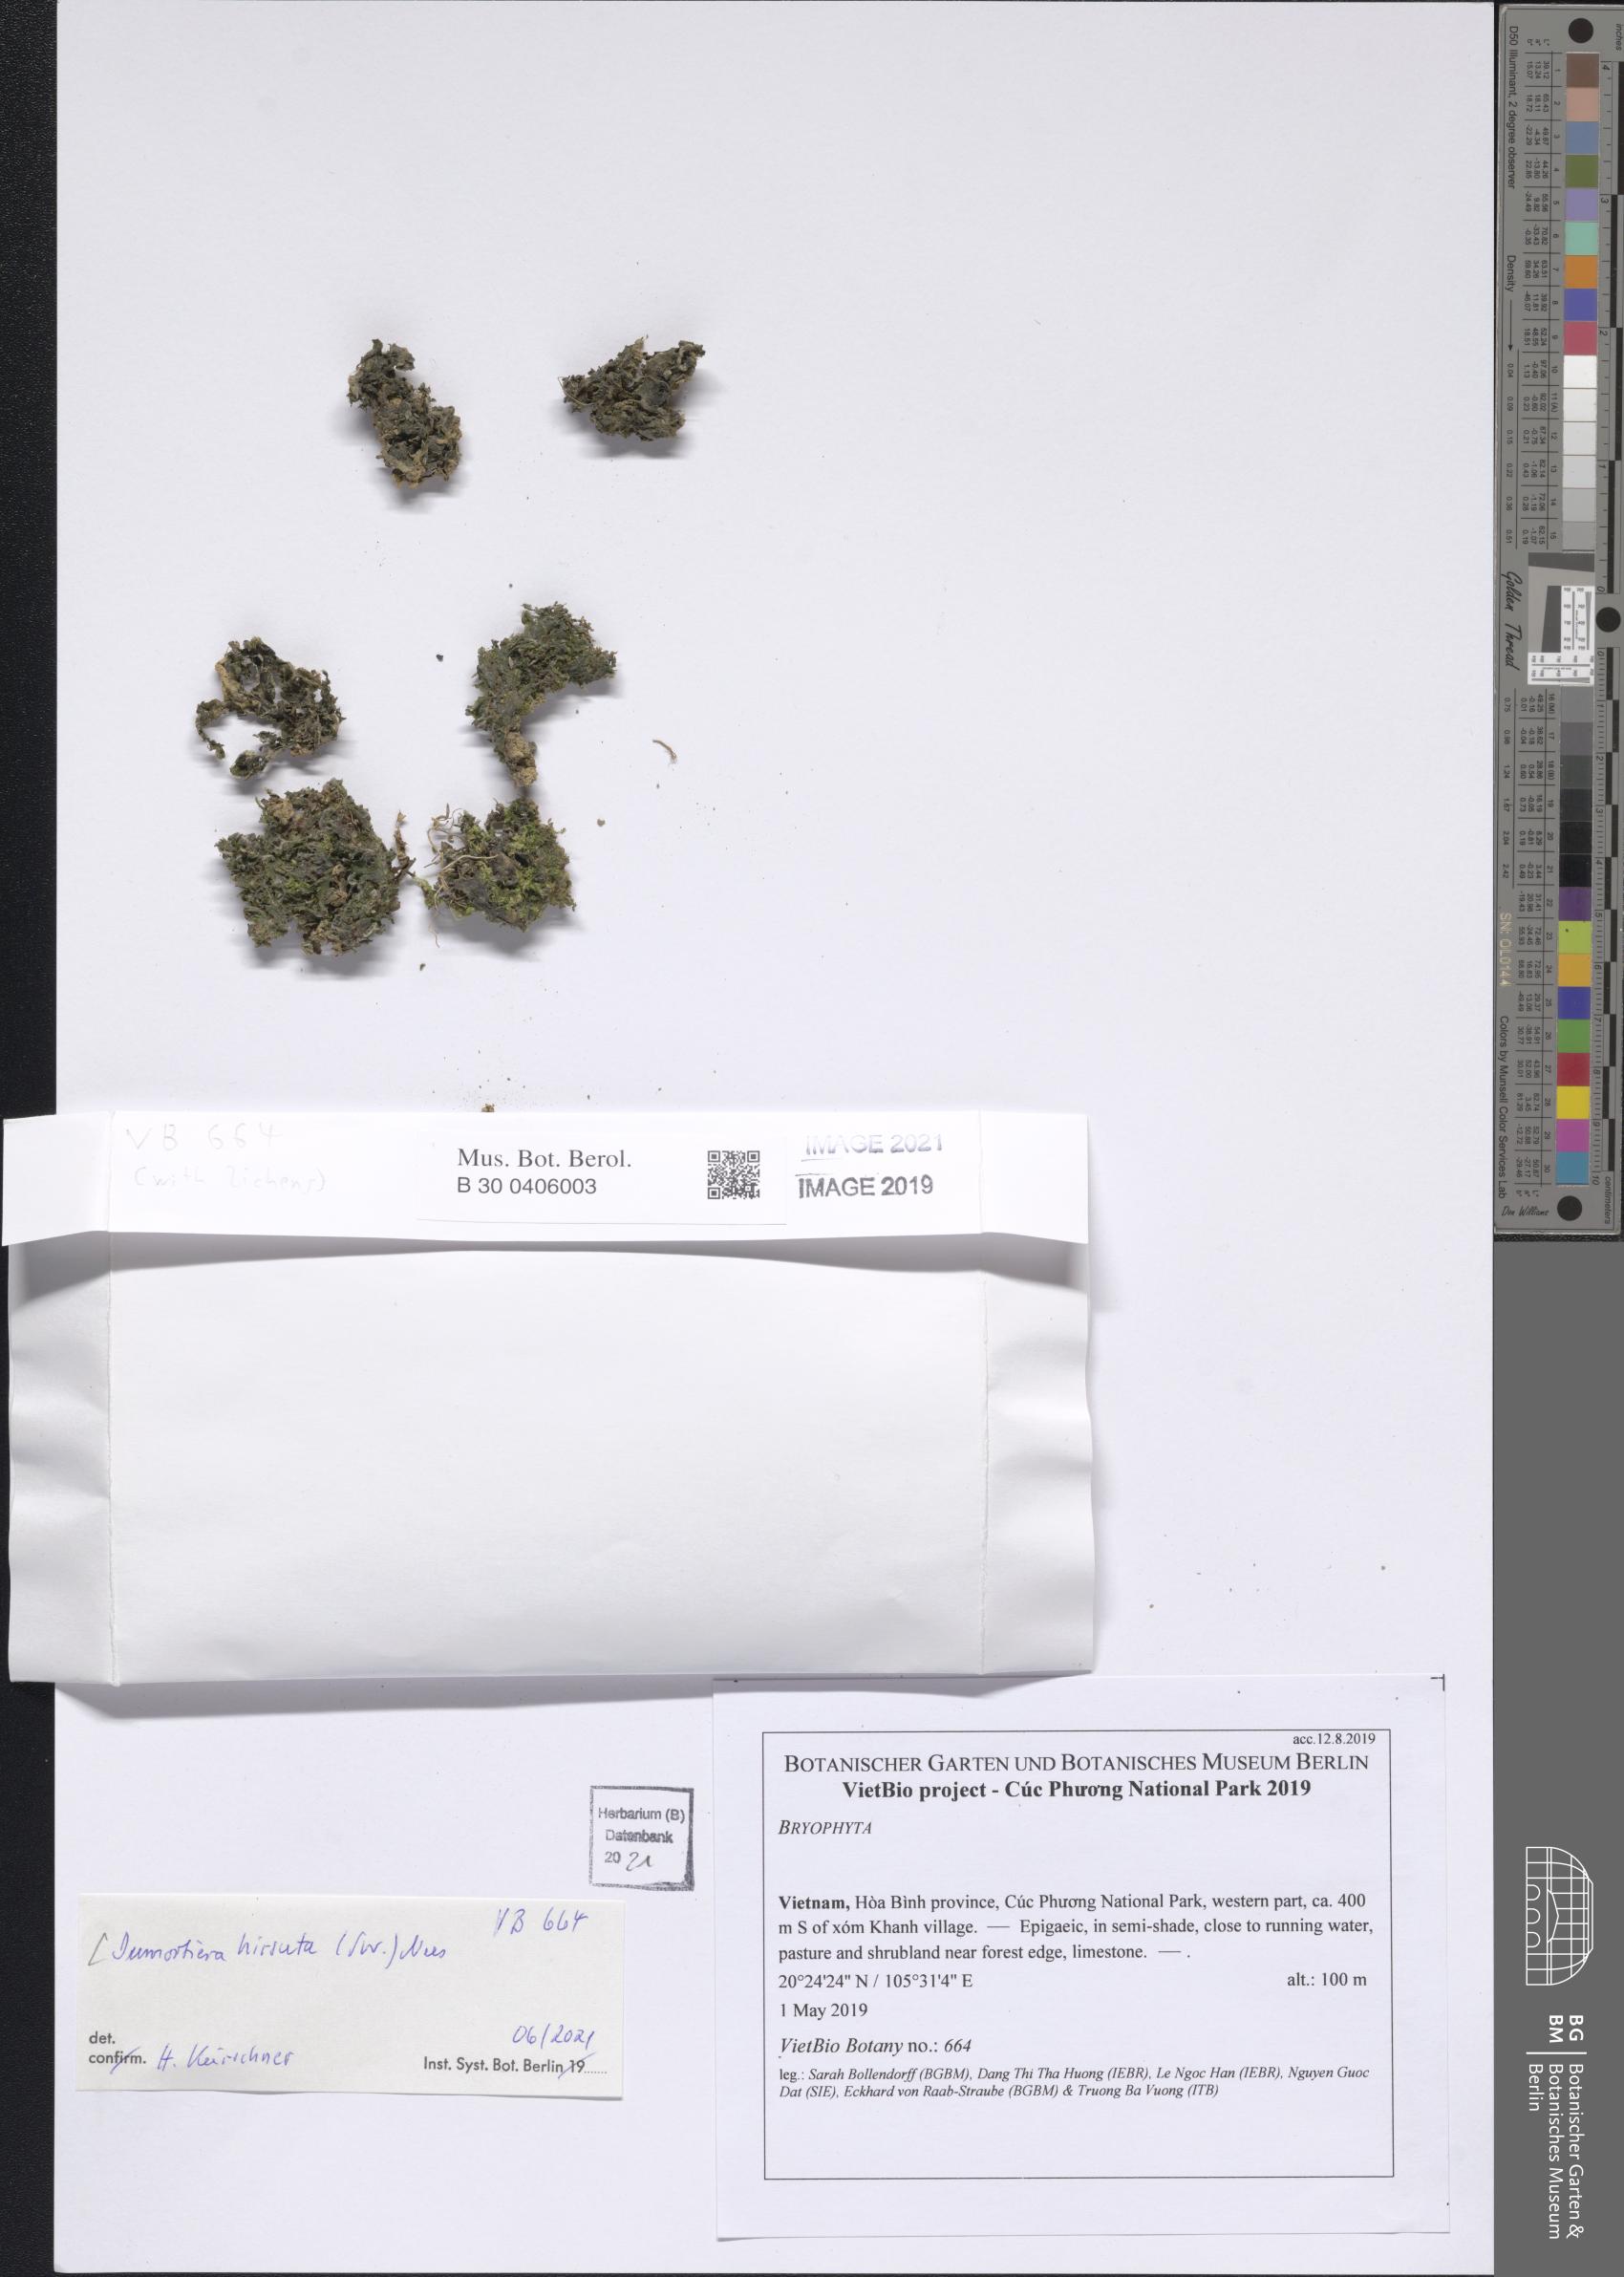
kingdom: Plantae
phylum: Marchantiophyta
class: Marchantiopsida
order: Marchantiales
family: Dumortieraceae
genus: Dumortiera
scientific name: Dumortiera hirsuta
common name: Dumortier's liverwort
